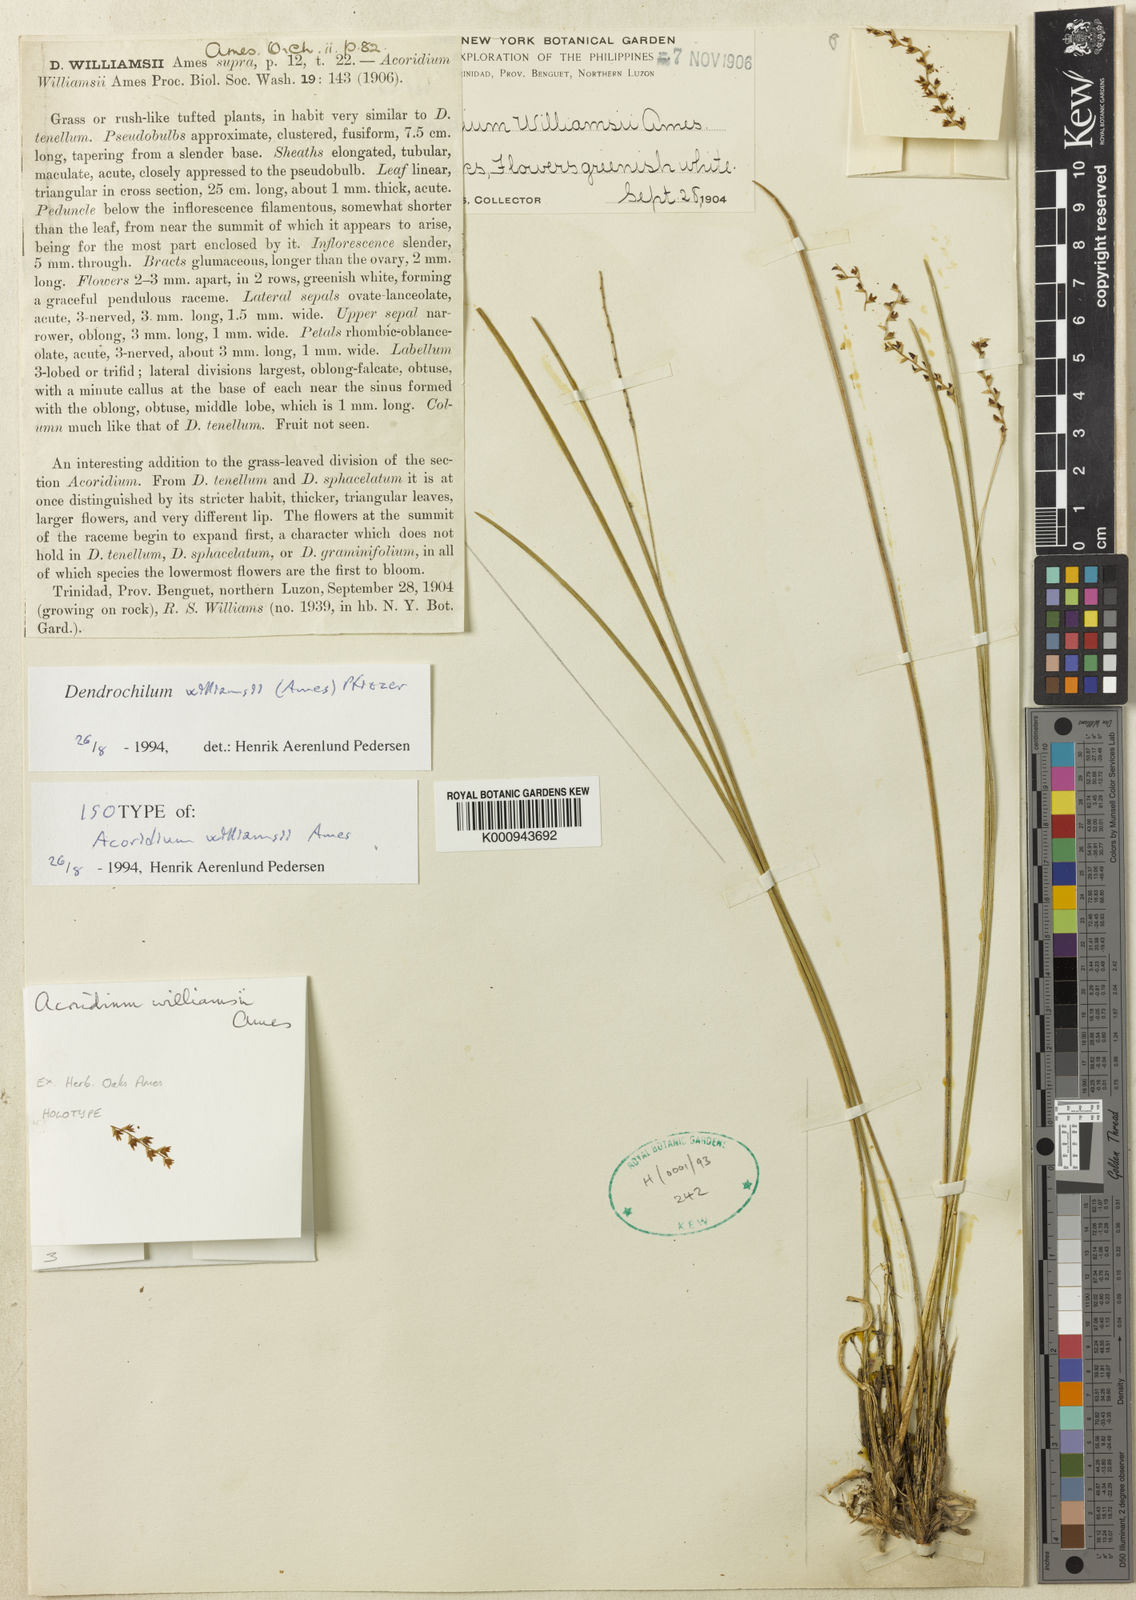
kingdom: Plantae
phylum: Tracheophyta
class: Liliopsida
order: Asparagales
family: Orchidaceae
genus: Coelogyne
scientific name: Coelogyne williamsii
